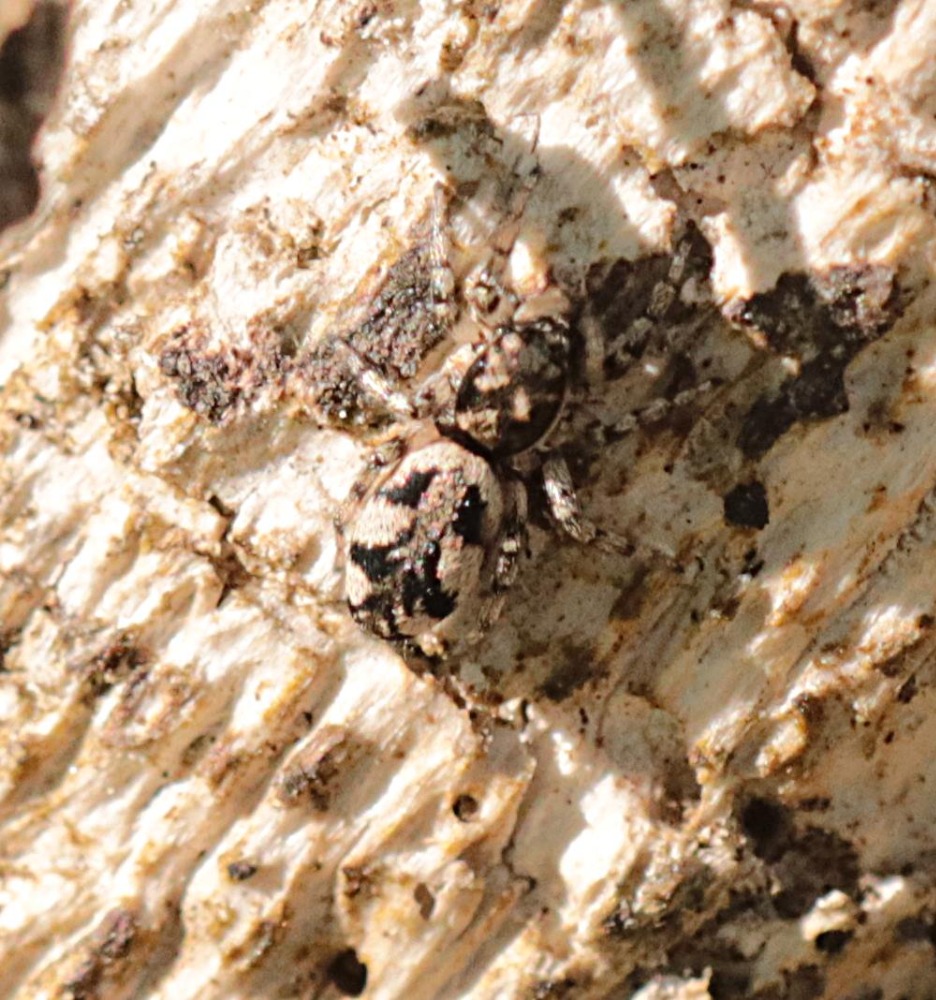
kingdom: Animalia
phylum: Arthropoda
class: Arachnida
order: Araneae
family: Salticidae
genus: Salticus
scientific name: Salticus
